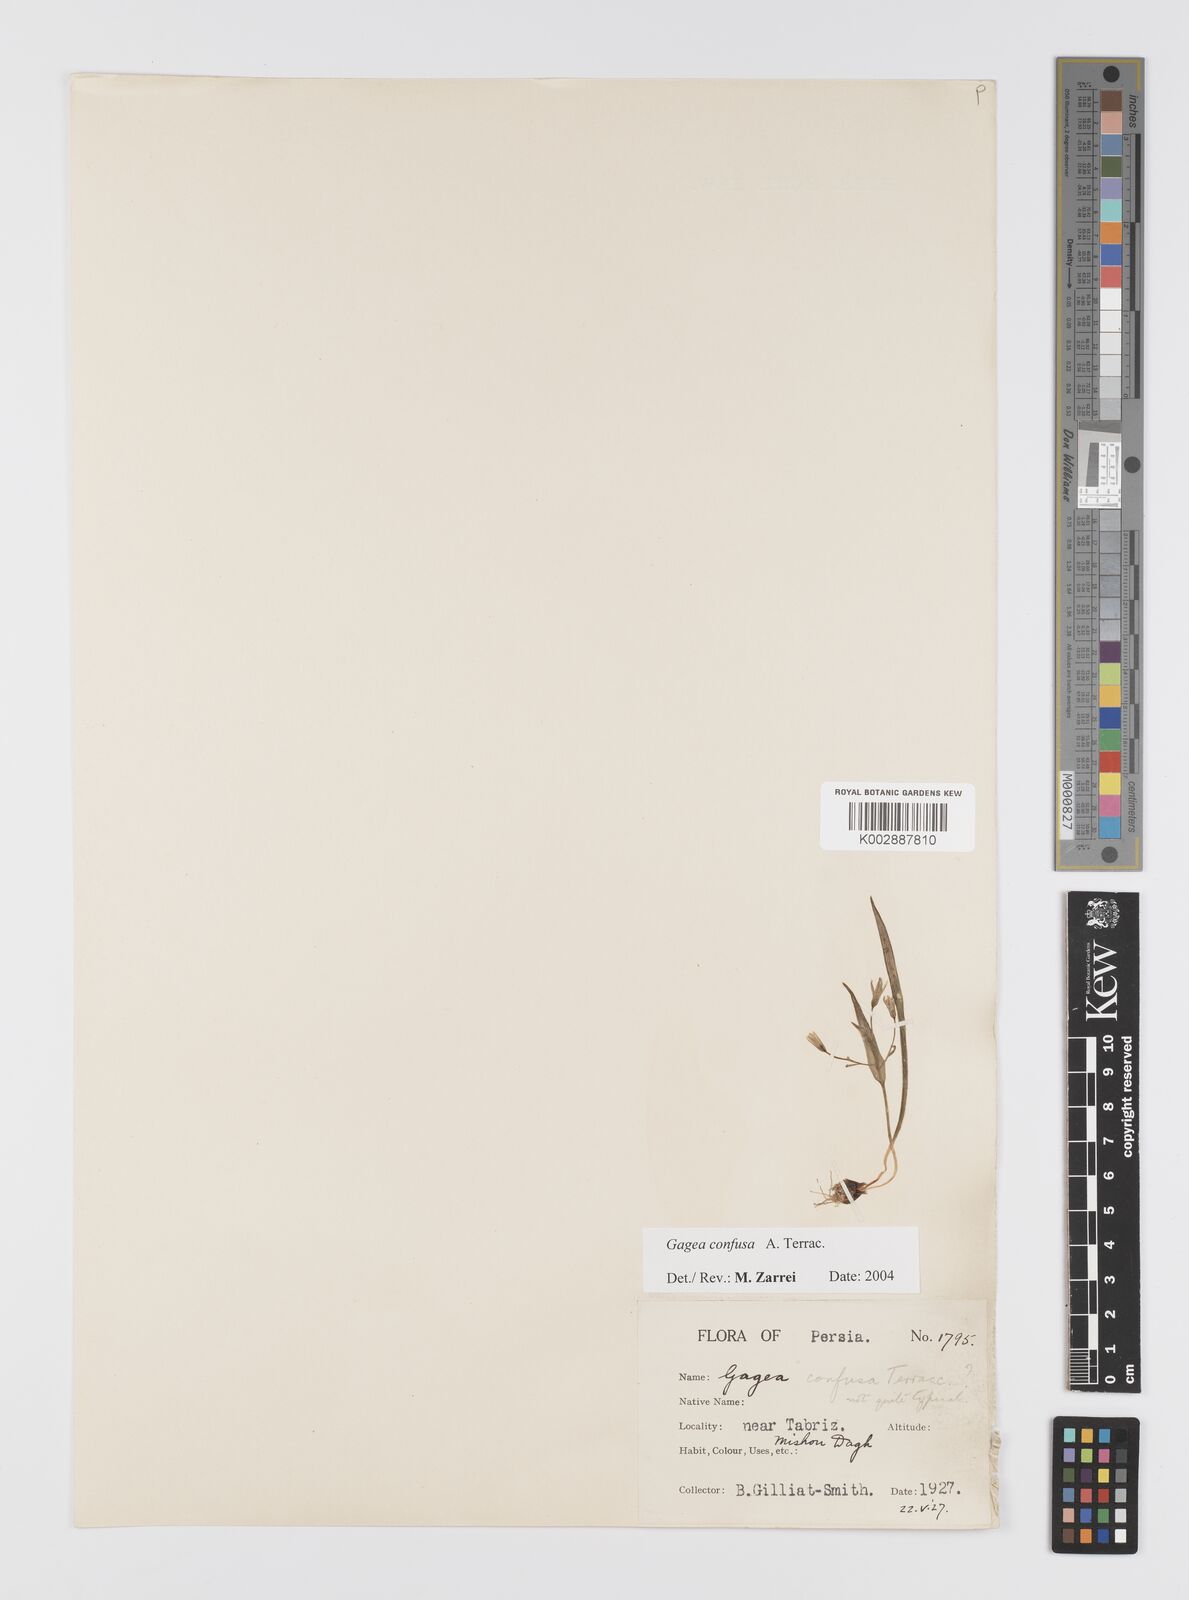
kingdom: Plantae
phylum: Tracheophyta
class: Liliopsida
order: Liliales
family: Liliaceae
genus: Gagea
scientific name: Gagea confusa
